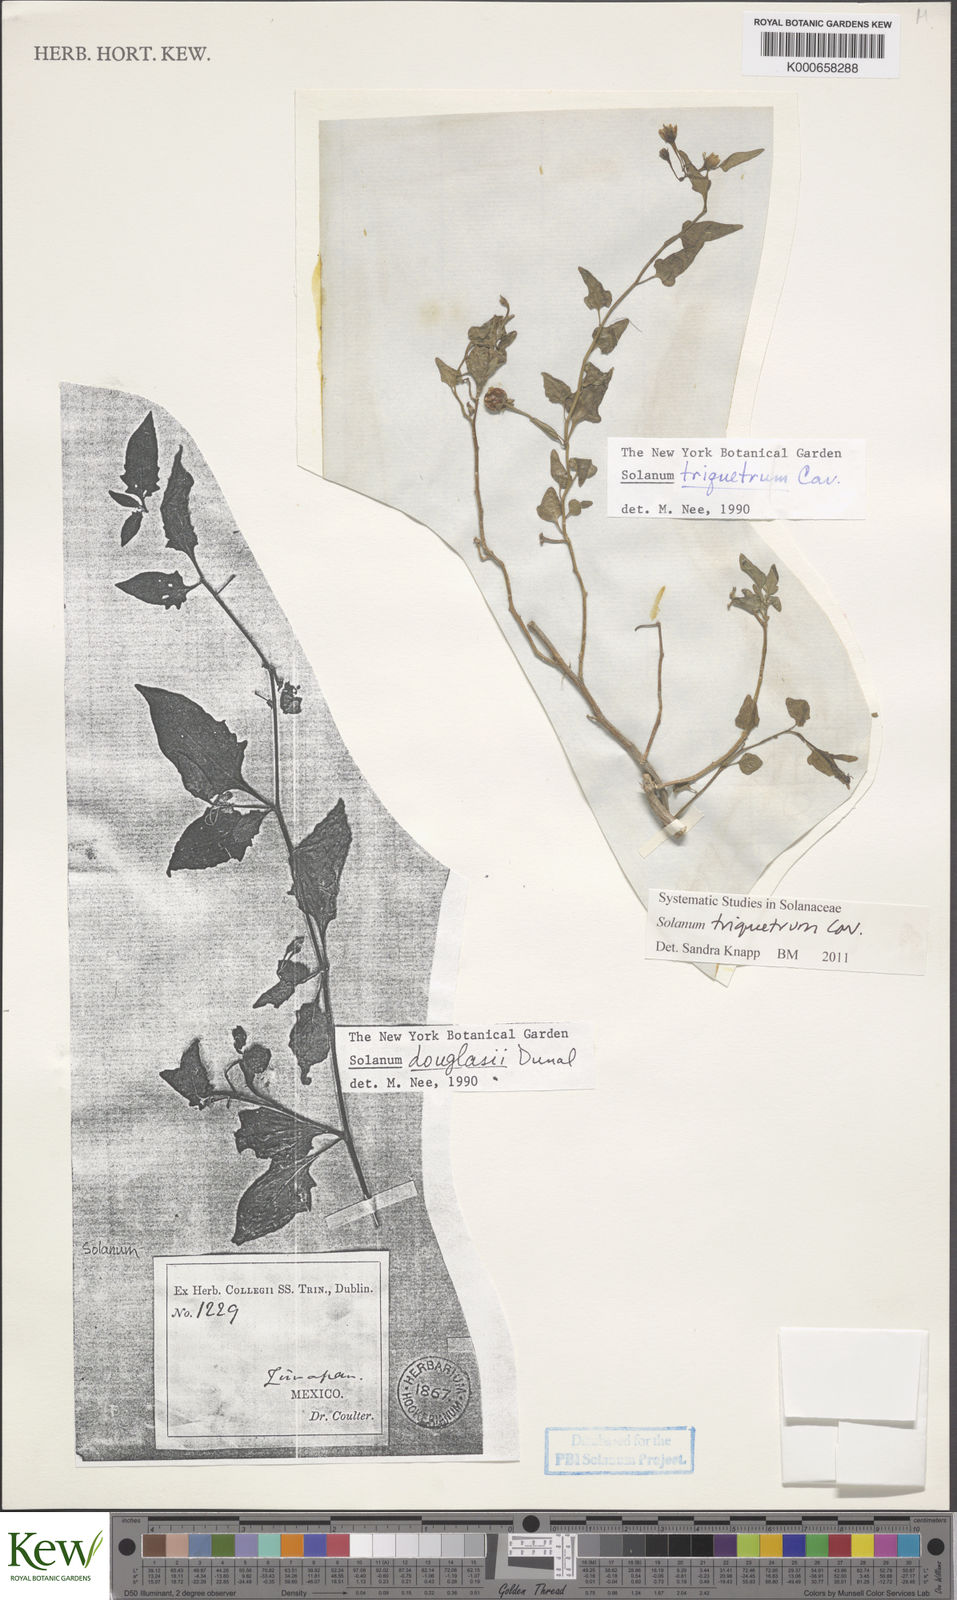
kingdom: Plantae
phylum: Tracheophyta
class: Magnoliopsida
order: Solanales
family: Solanaceae
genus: Solanum
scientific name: Solanum umbelliferum
